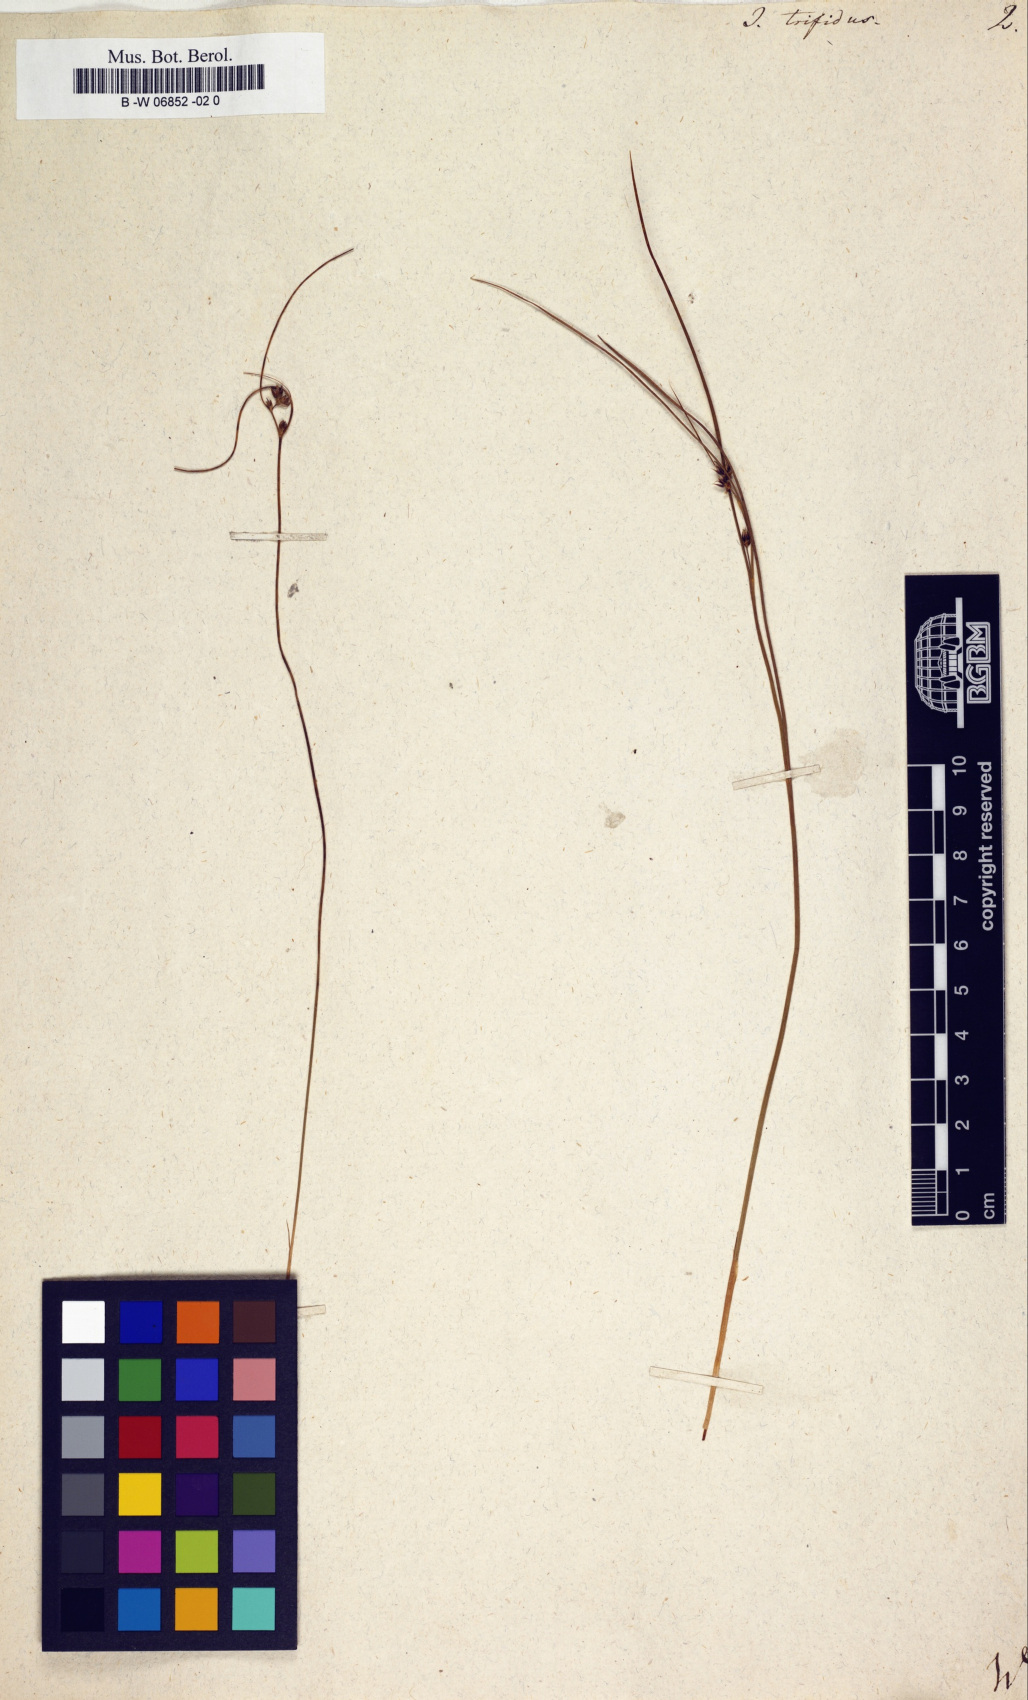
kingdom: Plantae
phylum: Tracheophyta
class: Liliopsida
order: Poales
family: Juncaceae
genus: Oreojuncus
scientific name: Oreojuncus trifidus
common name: Highland rush
